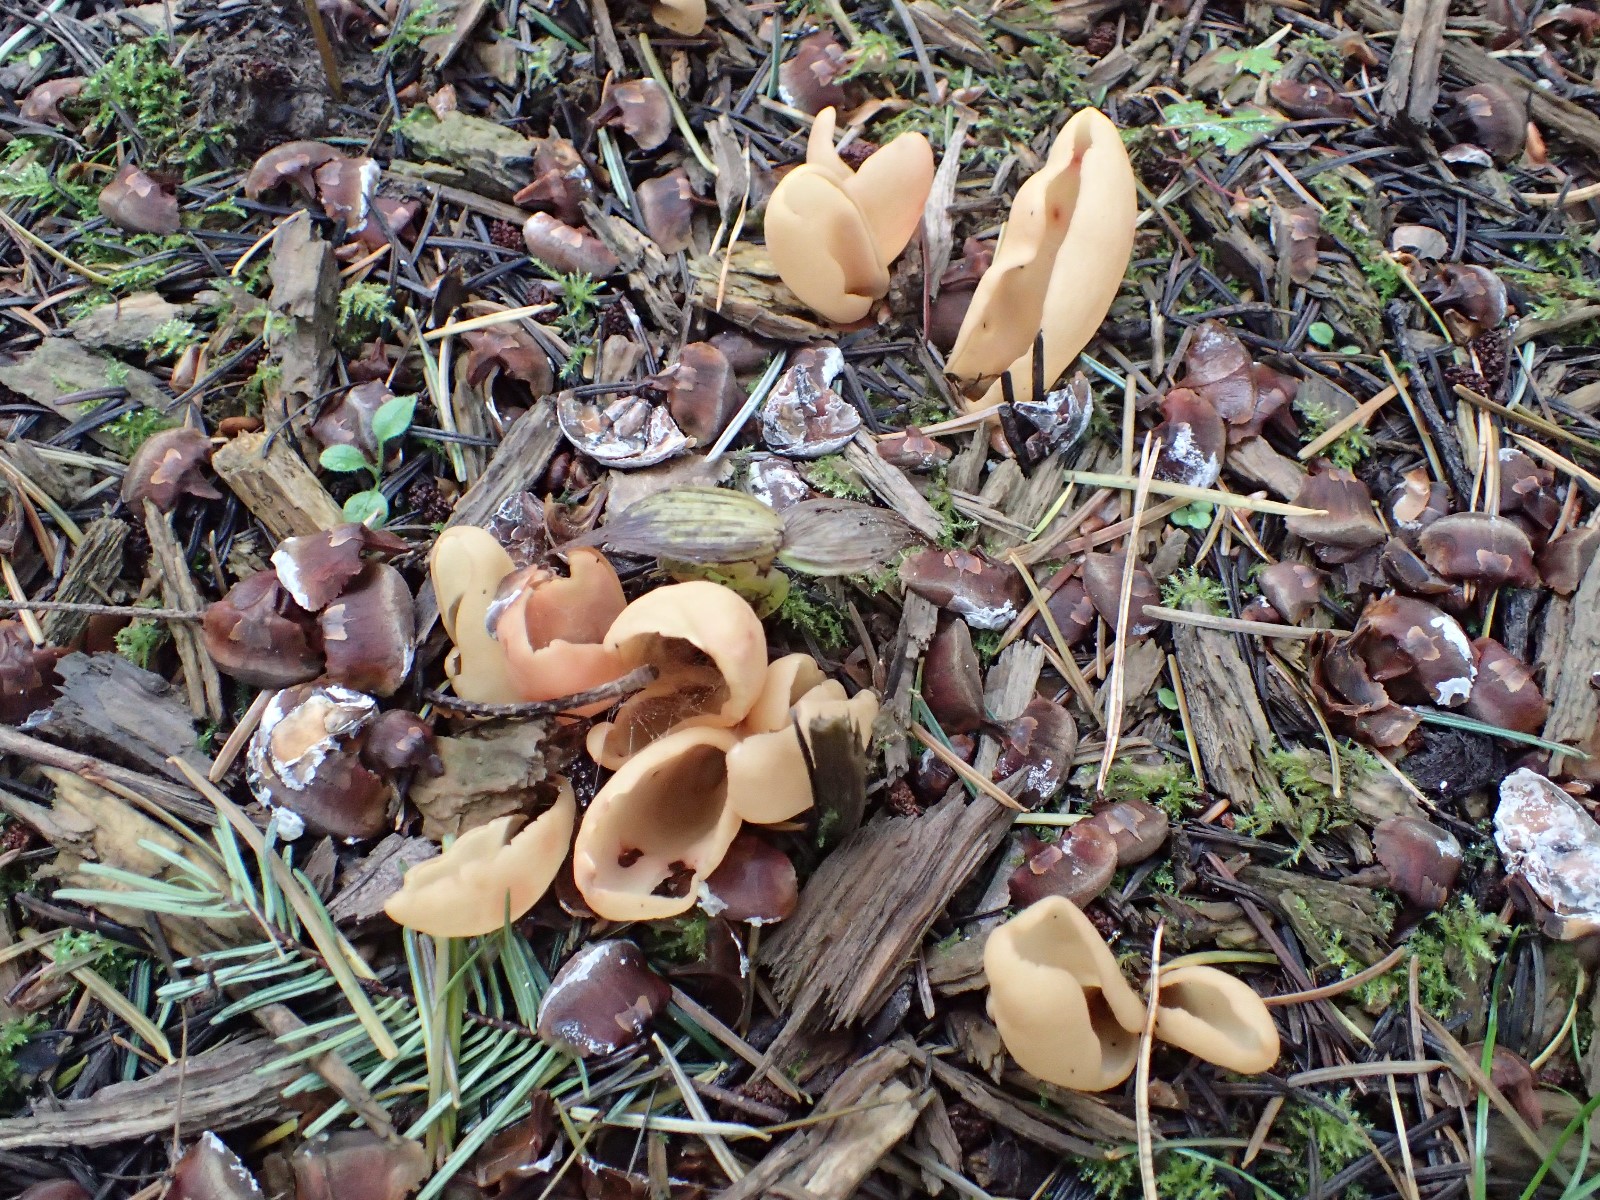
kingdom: Fungi
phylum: Ascomycota
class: Pezizomycetes
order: Pezizales
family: Otideaceae
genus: Otidea
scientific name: Otidea onotica
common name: æsel-ørebæger
